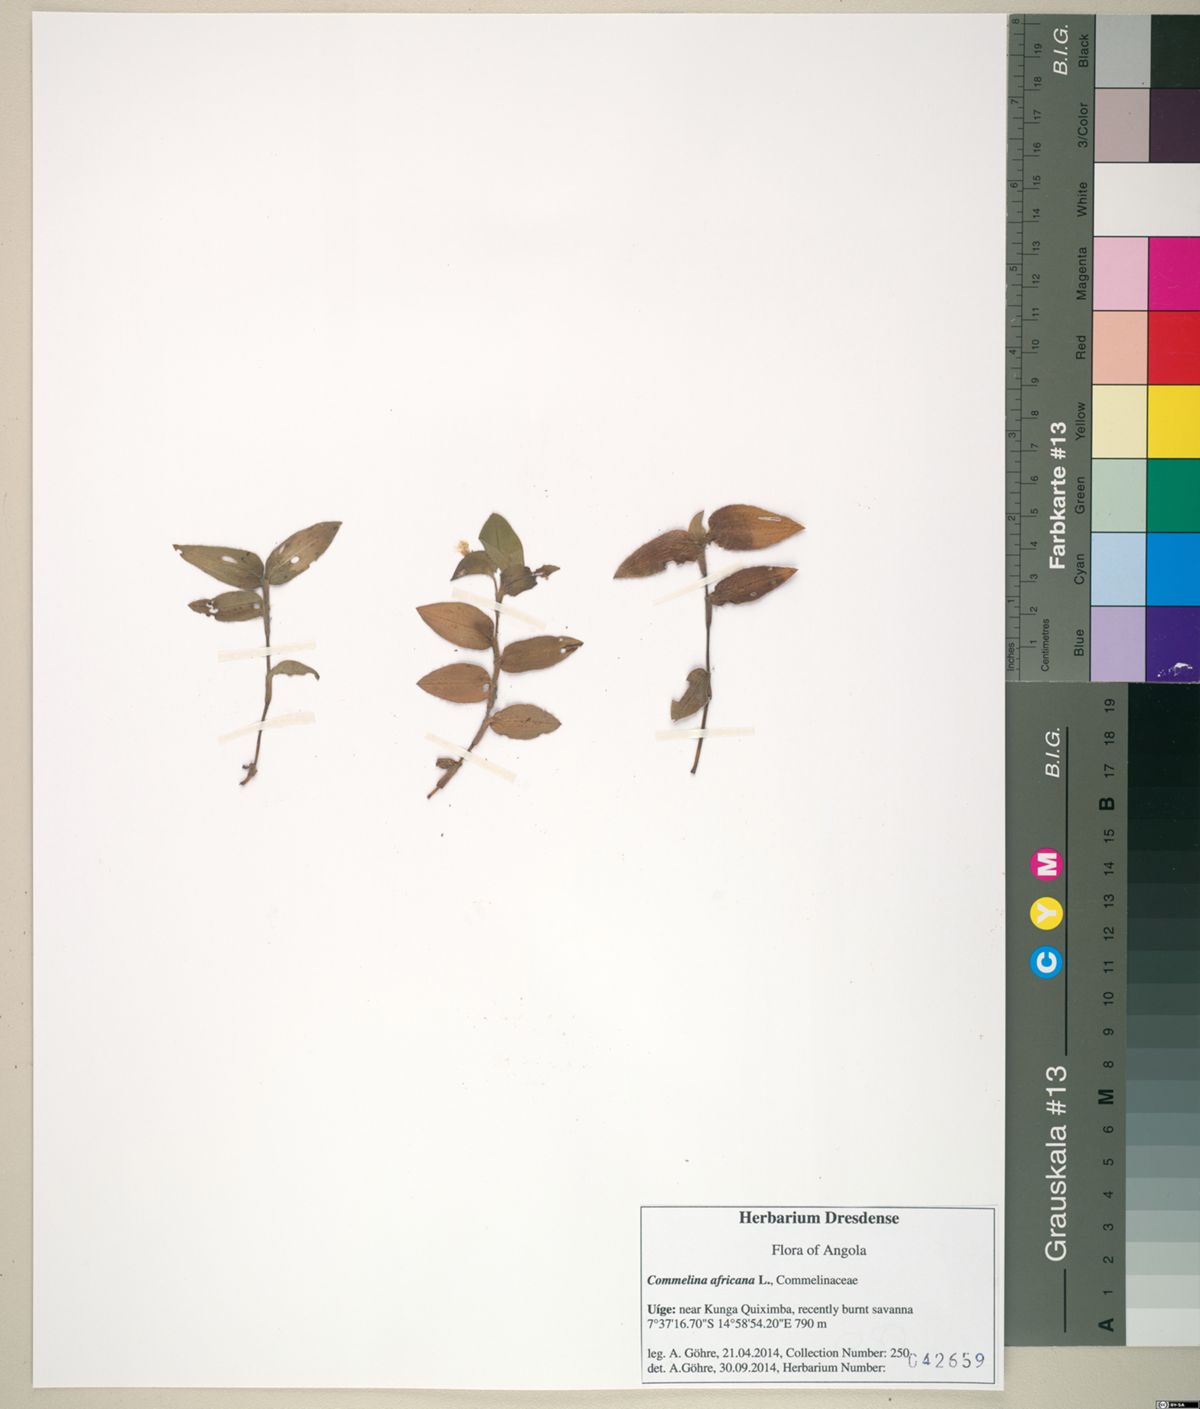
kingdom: Plantae
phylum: Tracheophyta
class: Liliopsida
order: Commelinales
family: Commelinaceae
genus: Commelina
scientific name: Commelina diffusa
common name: Climbing dayflower
